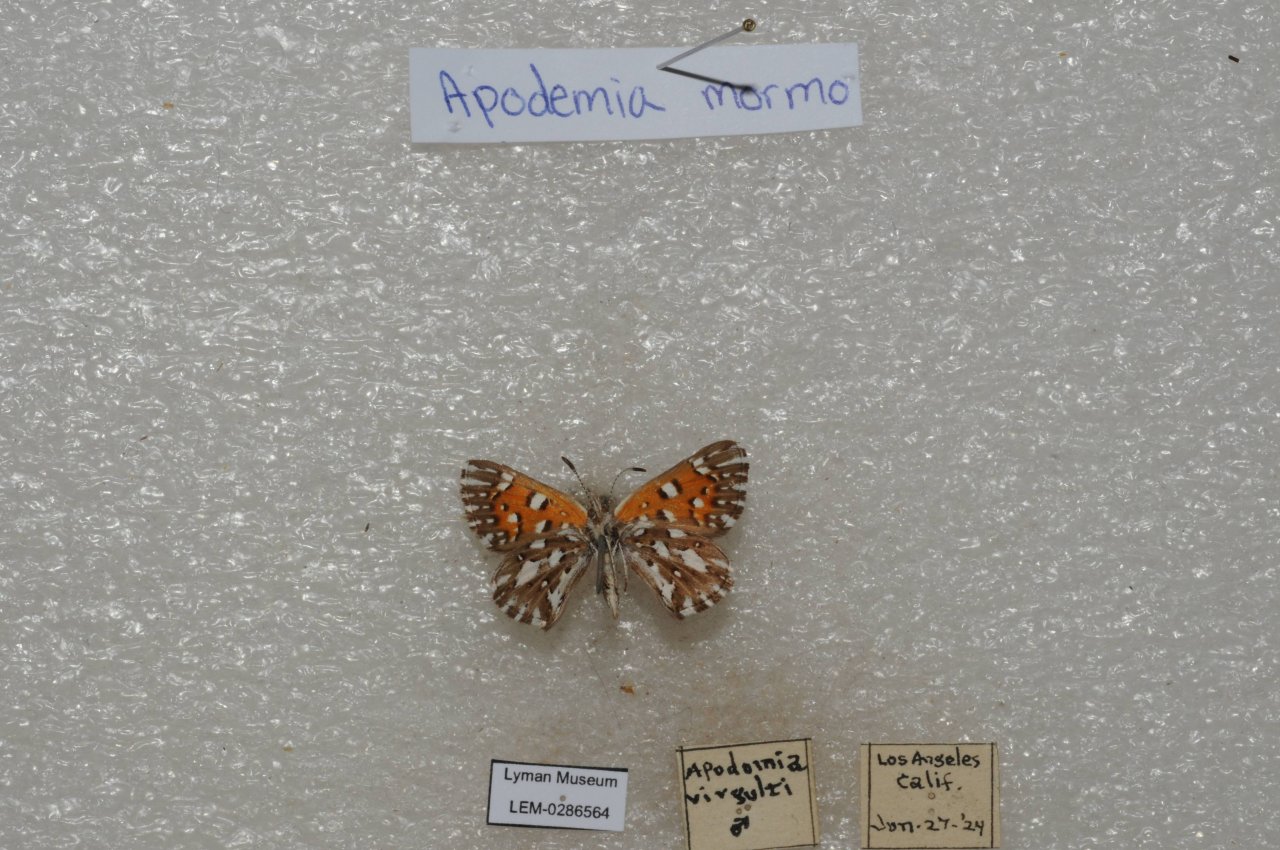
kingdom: Animalia
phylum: Arthropoda
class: Insecta
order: Lepidoptera
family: Riodinidae
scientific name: Riodinidae
